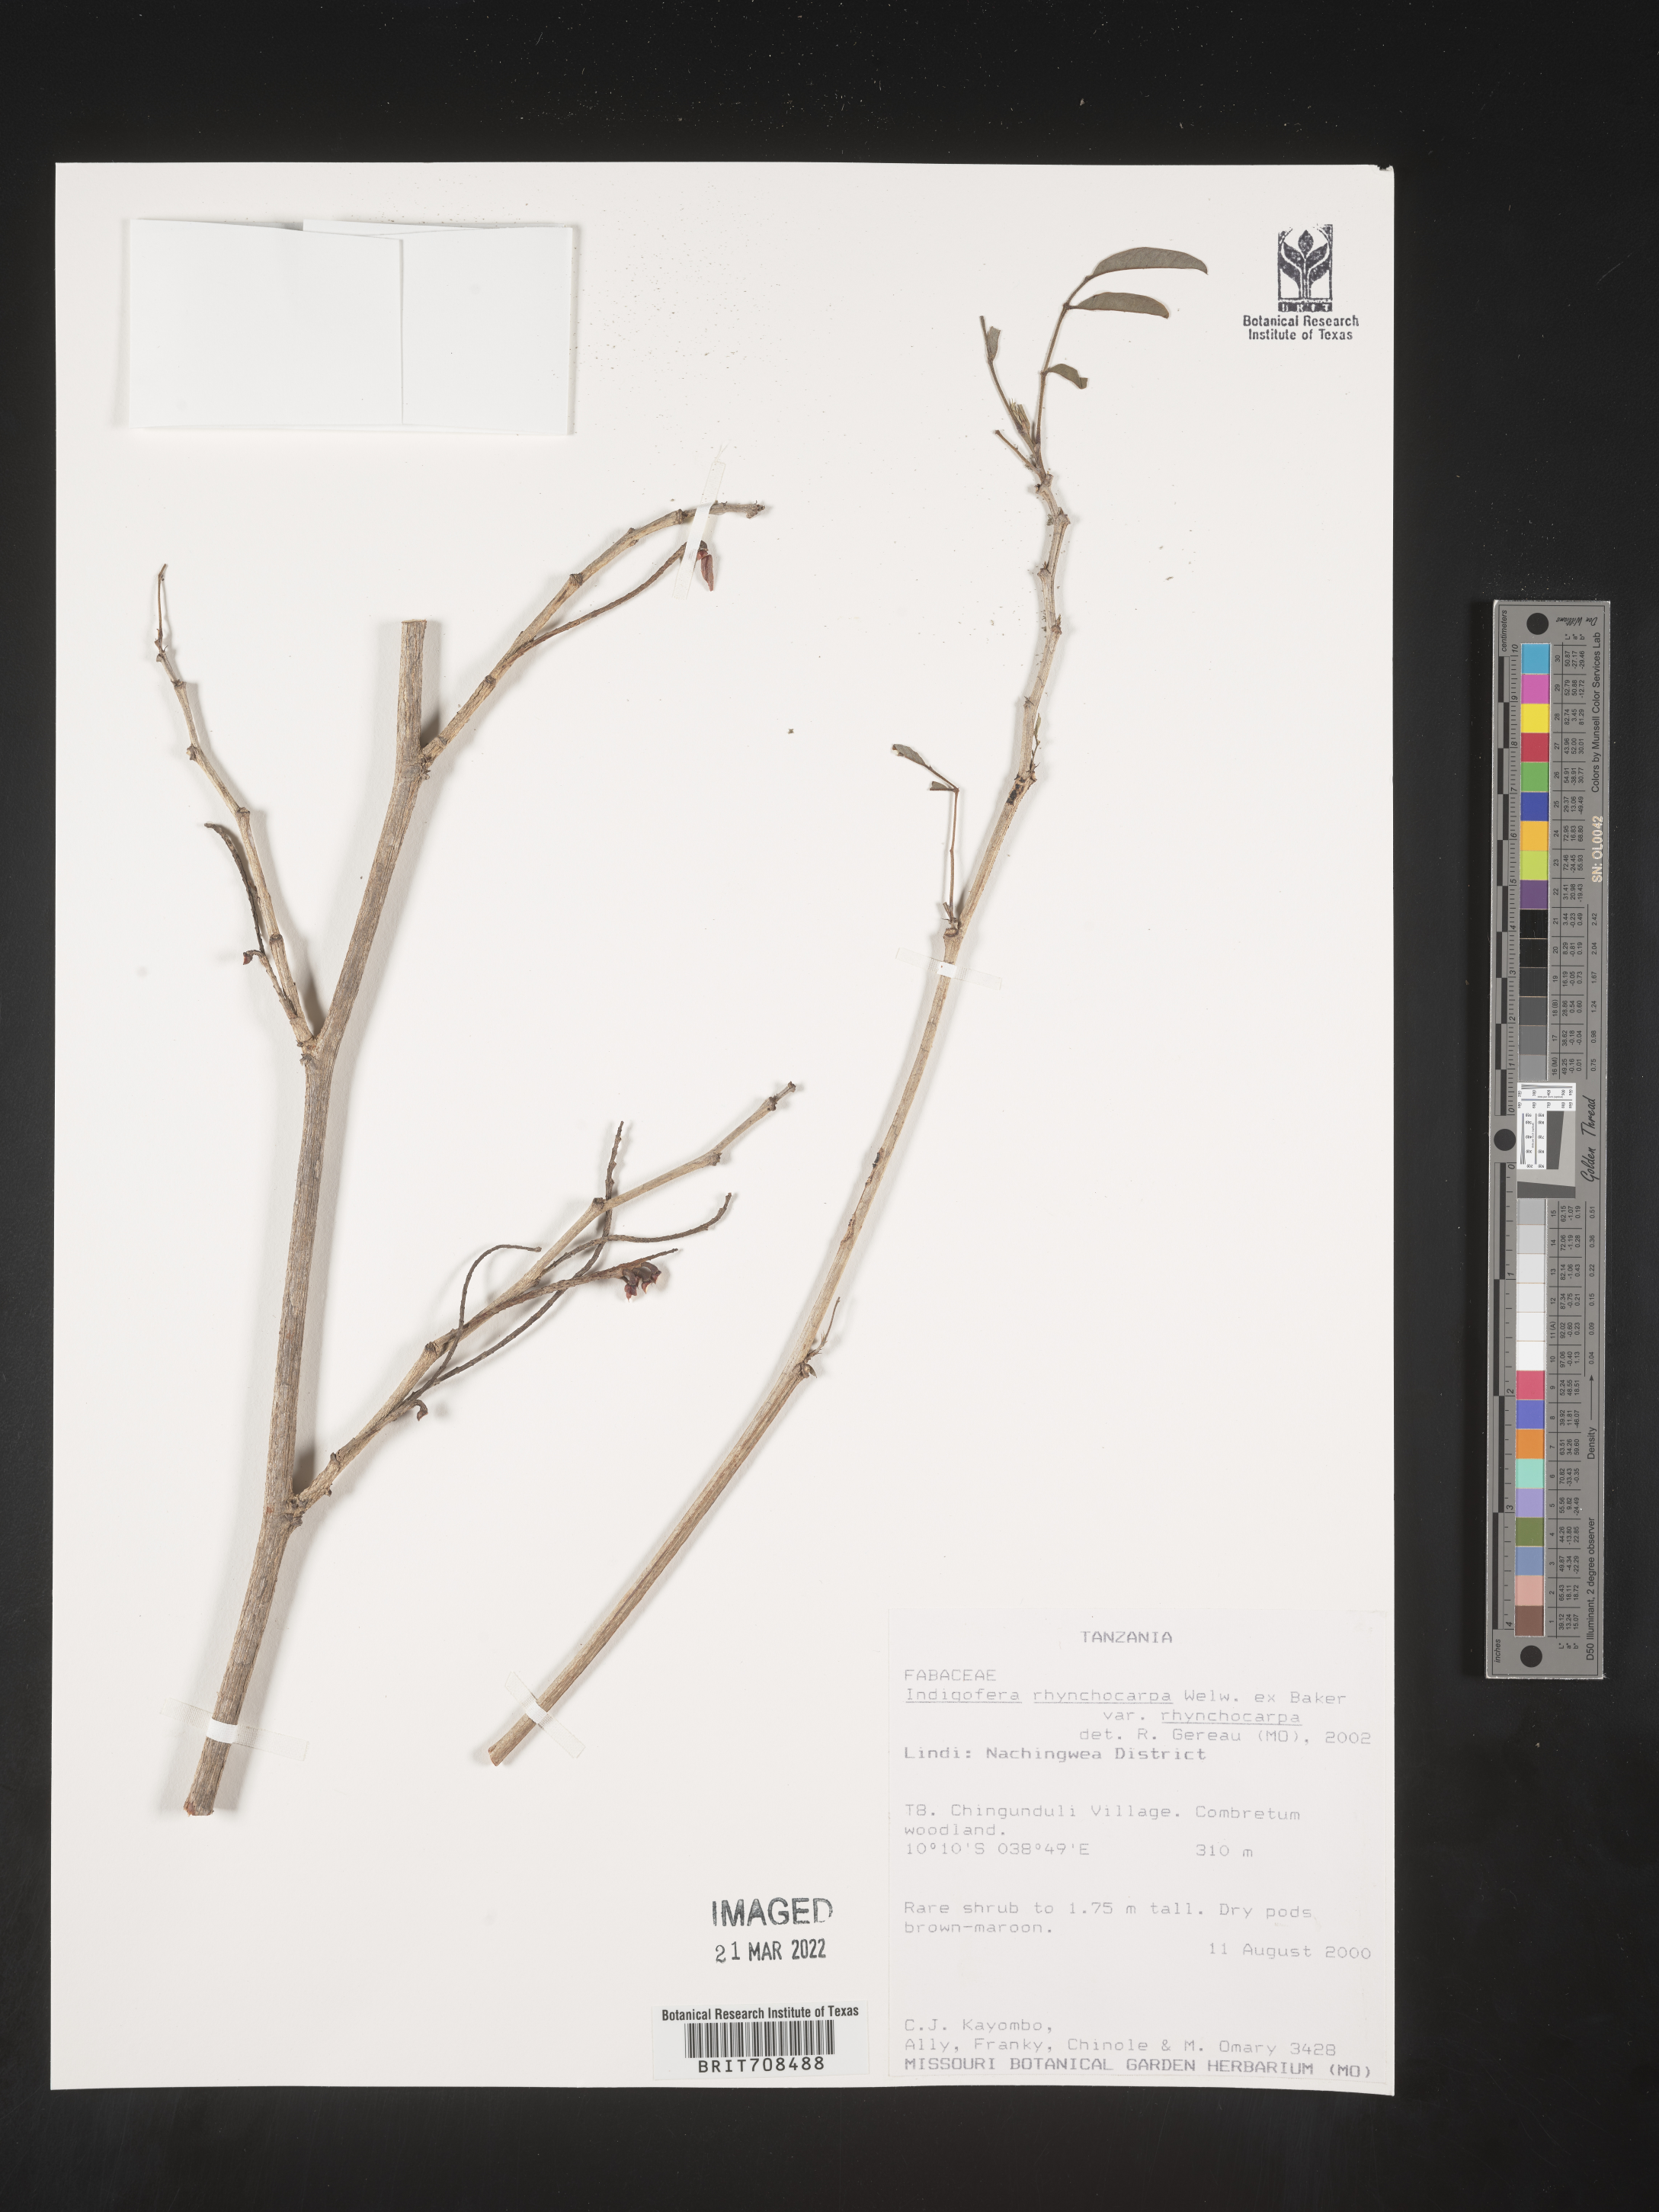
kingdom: Plantae
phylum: Tracheophyta
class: Magnoliopsida
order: Fabales
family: Fabaceae
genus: Indigofera
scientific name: Indigofera
